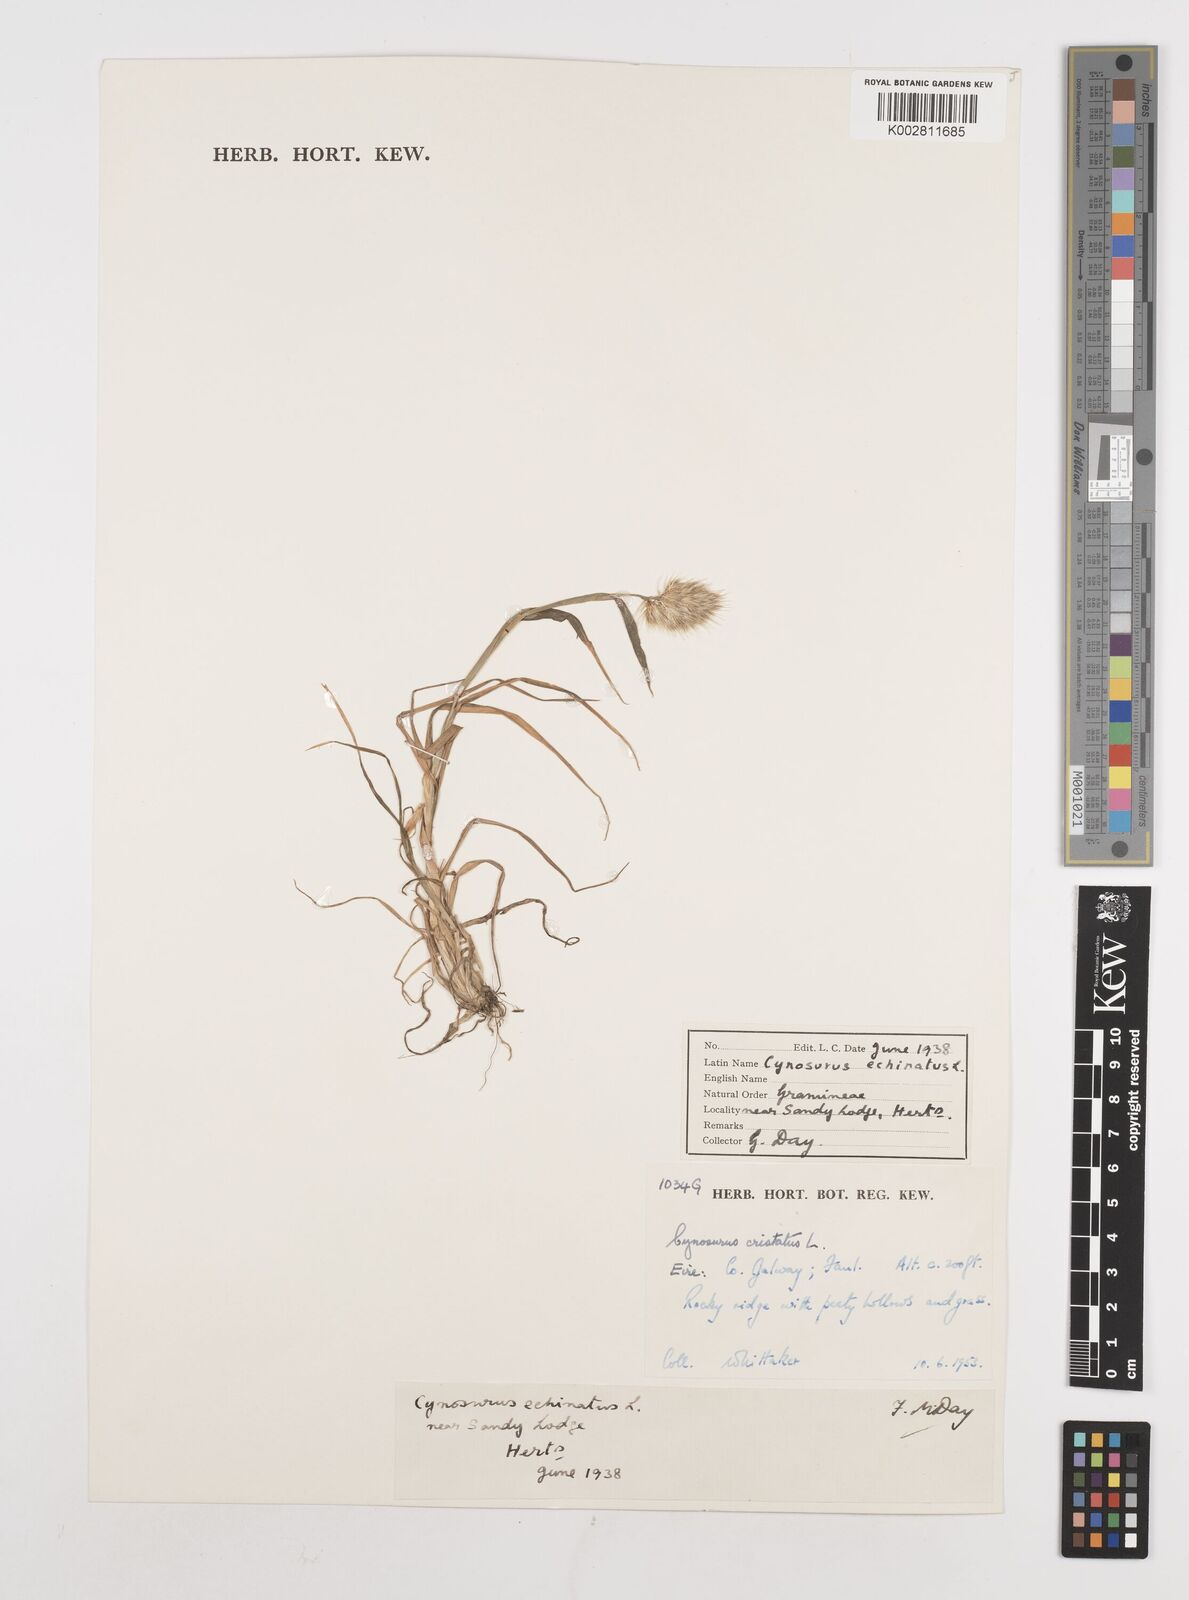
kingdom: Plantae
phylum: Tracheophyta
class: Liliopsida
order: Poales
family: Poaceae
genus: Cynosurus
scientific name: Cynosurus echinatus
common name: Rough dog's-tail
